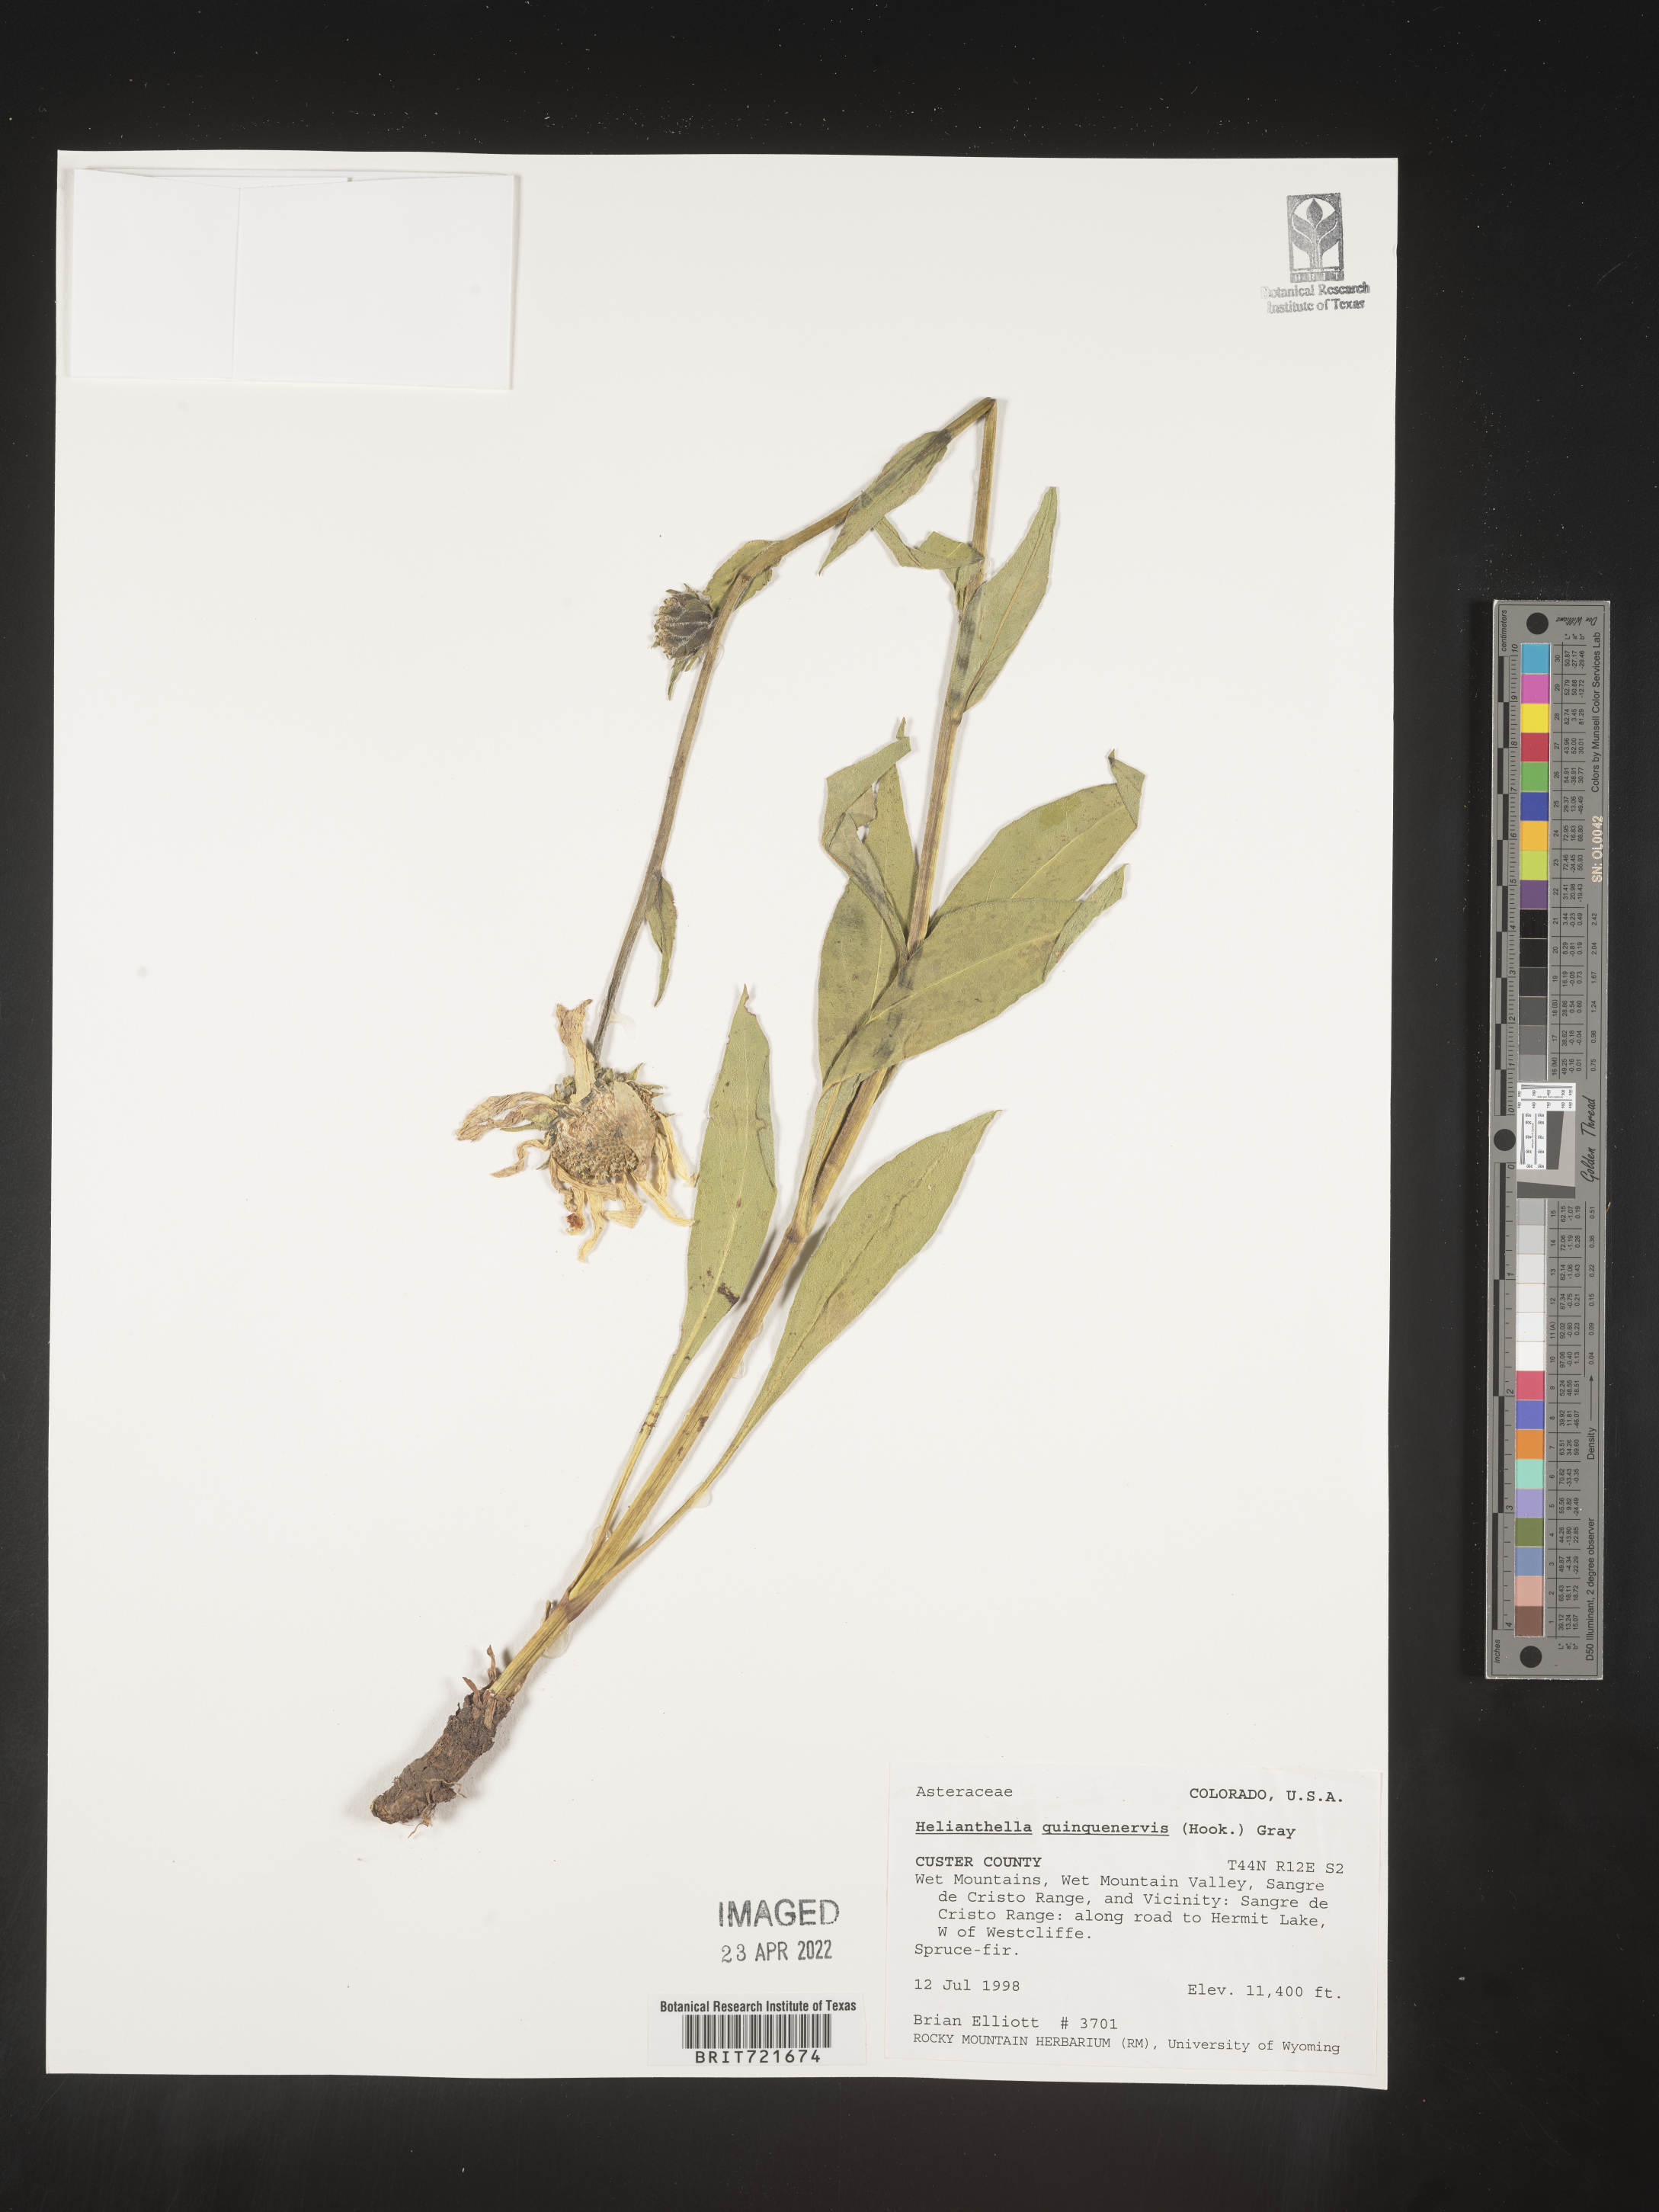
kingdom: Plantae
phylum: Tracheophyta
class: Magnoliopsida
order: Asterales
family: Asteraceae
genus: Helianthella
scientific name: Helianthella quinquenervis
